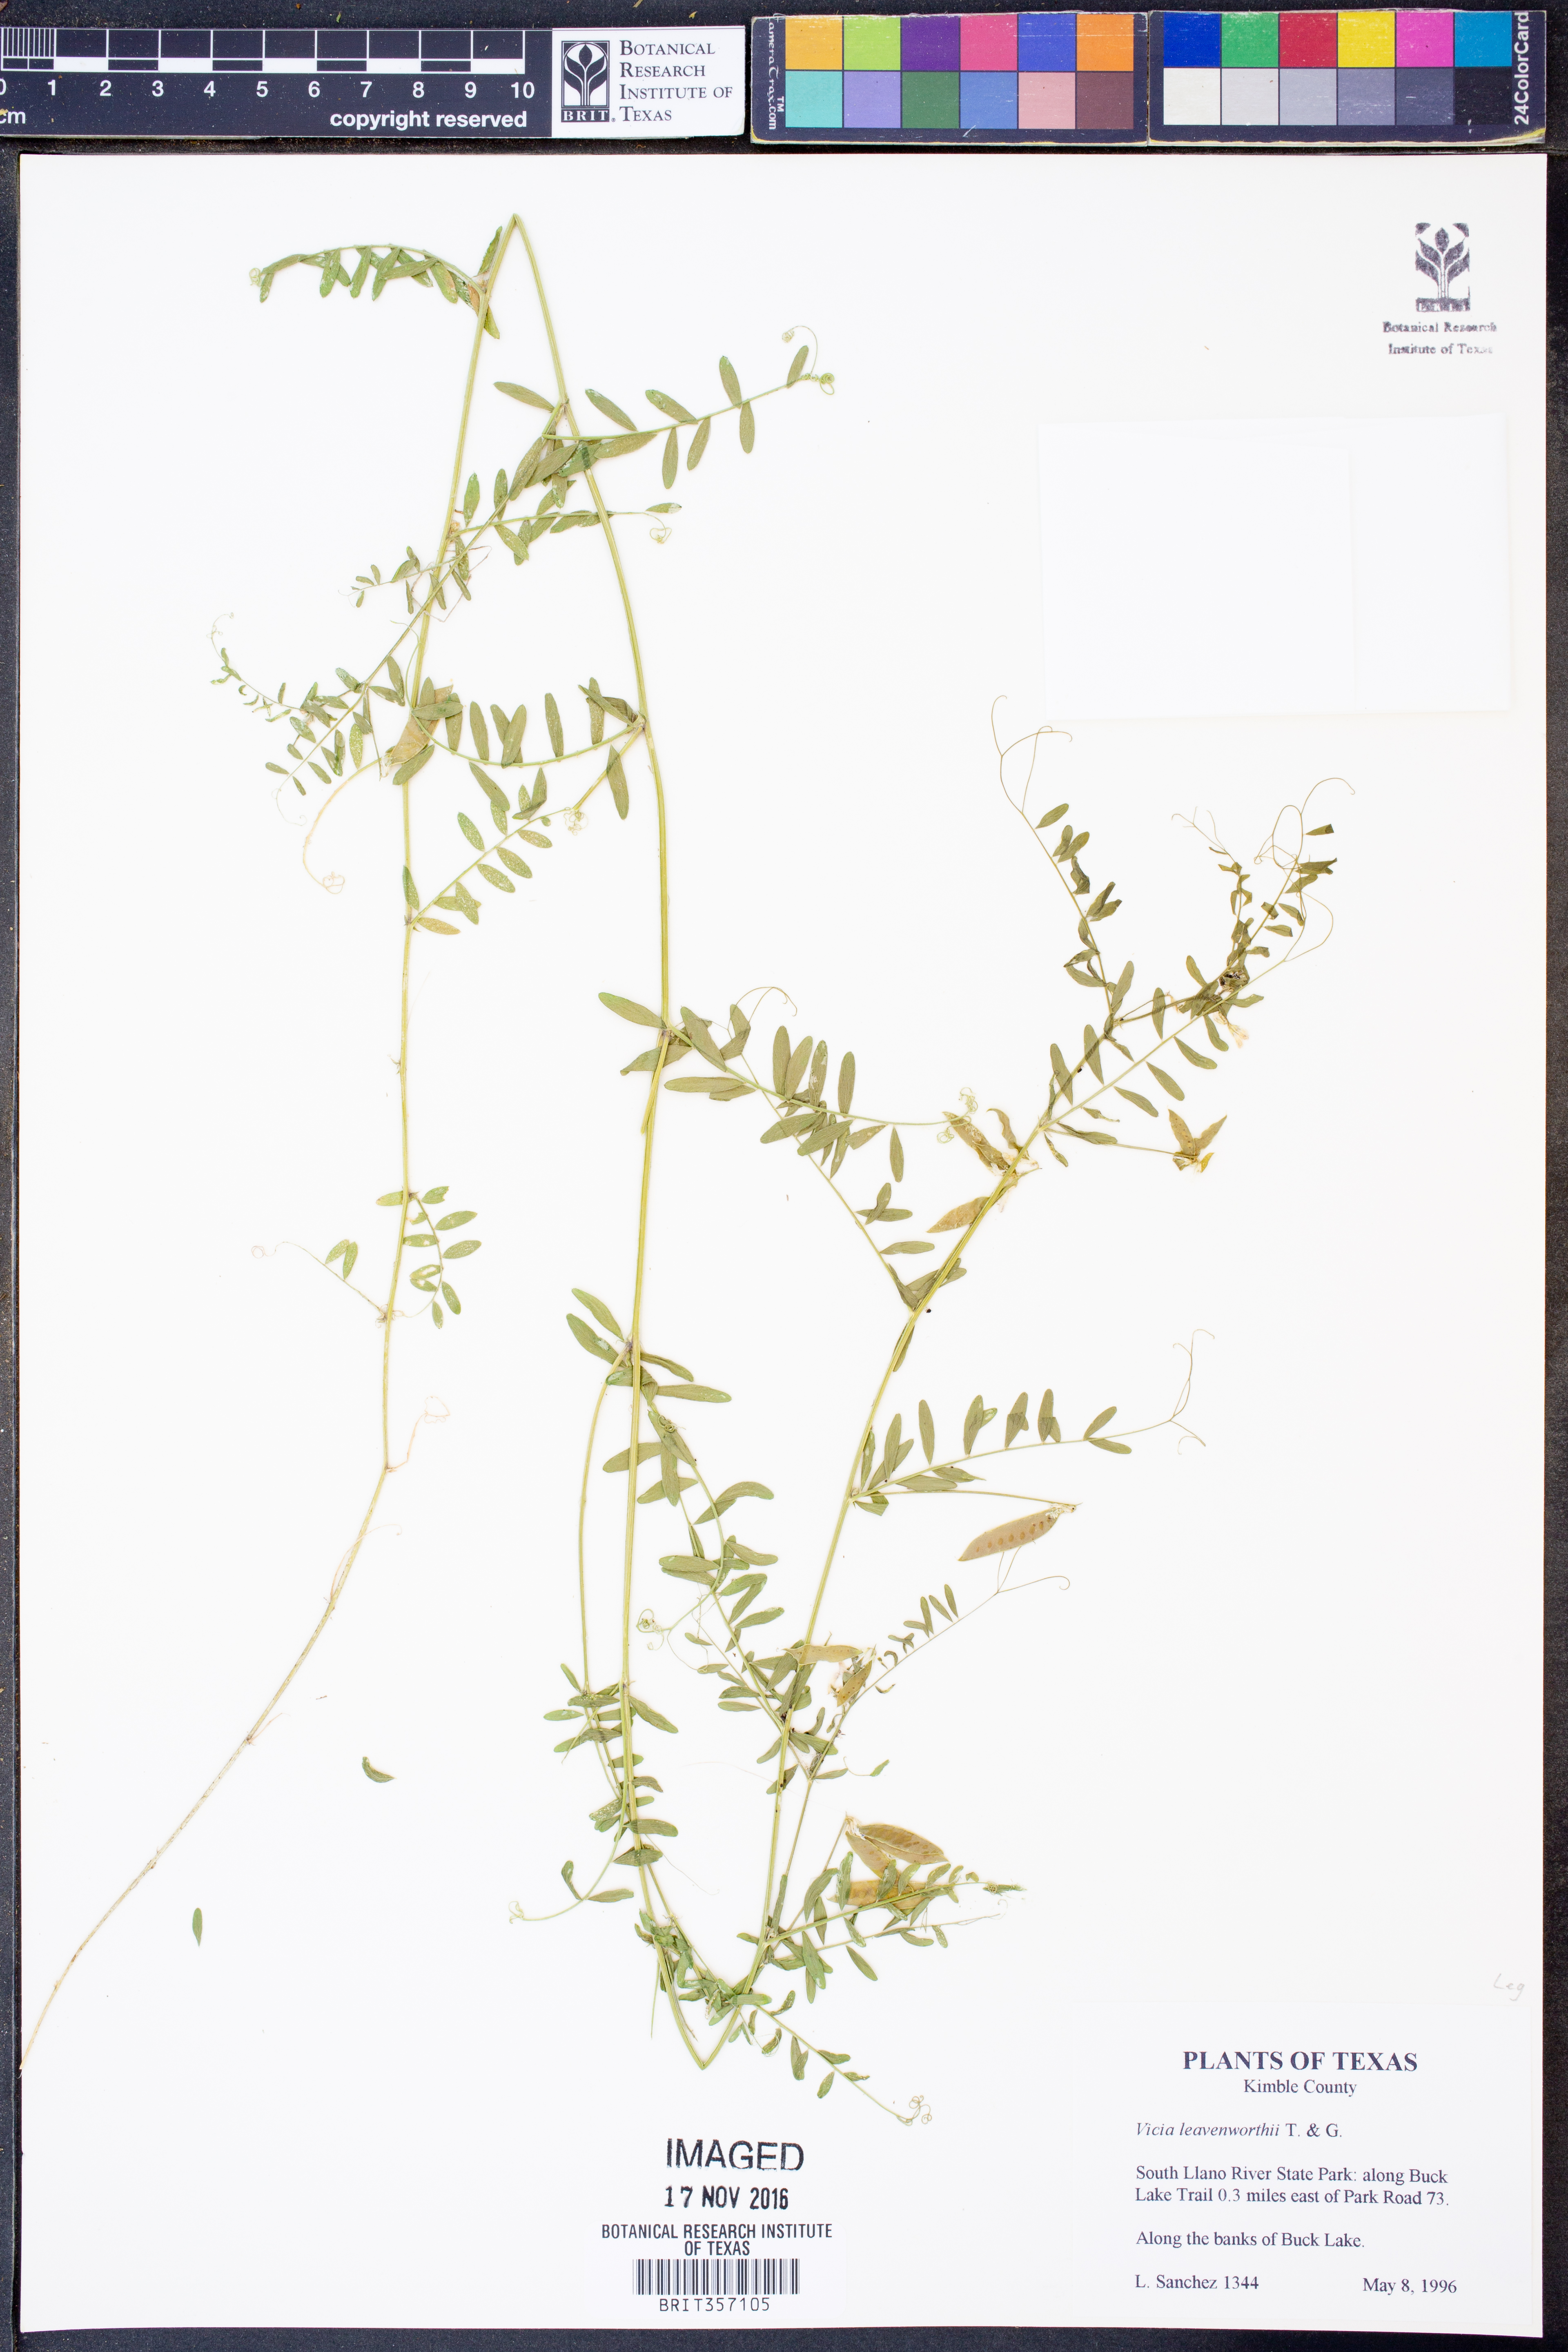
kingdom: Plantae
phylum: Tracheophyta
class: Magnoliopsida
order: Fabales
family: Fabaceae
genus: Vicia
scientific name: Vicia ludoviciana
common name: Louisiana vetch
